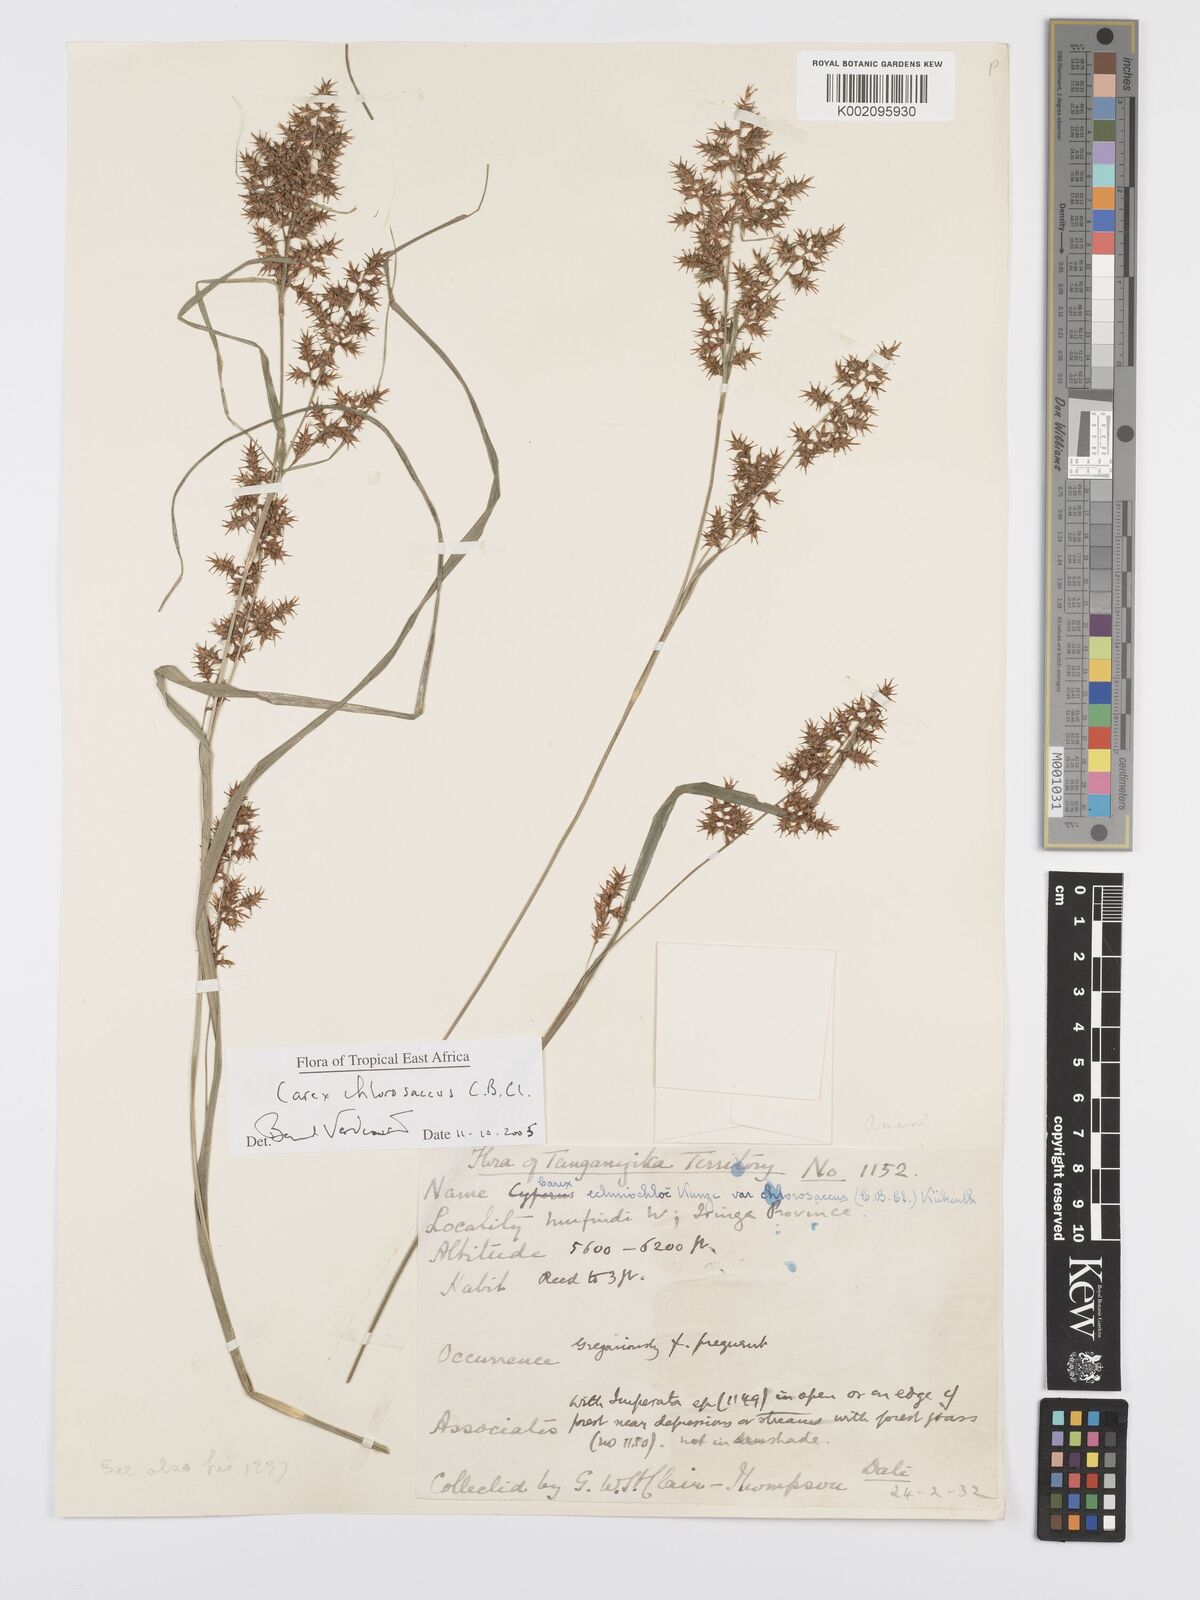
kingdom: Plantae
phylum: Tracheophyta
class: Liliopsida
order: Poales
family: Cyperaceae
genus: Carex
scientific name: Carex chlorosaccus
